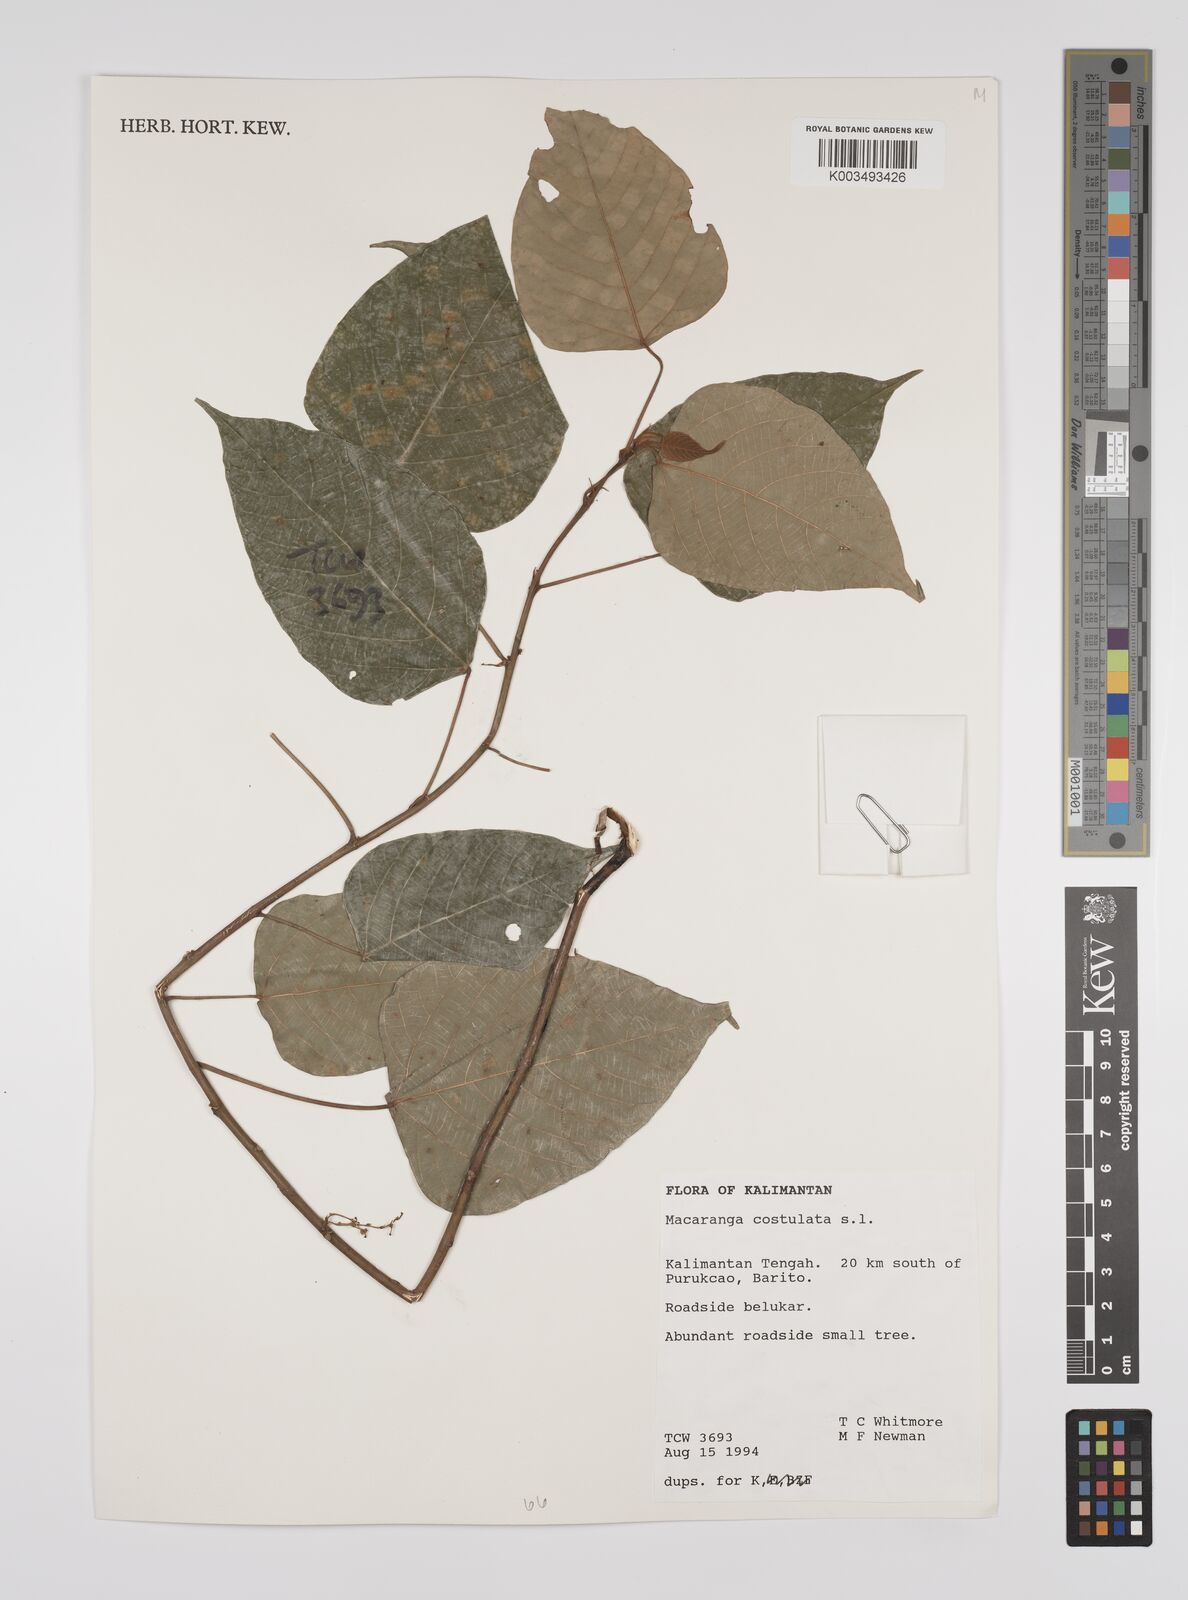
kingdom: Plantae
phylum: Tracheophyta
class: Magnoliopsida
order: Malpighiales
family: Euphorbiaceae
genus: Macaranga
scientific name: Macaranga costulata
